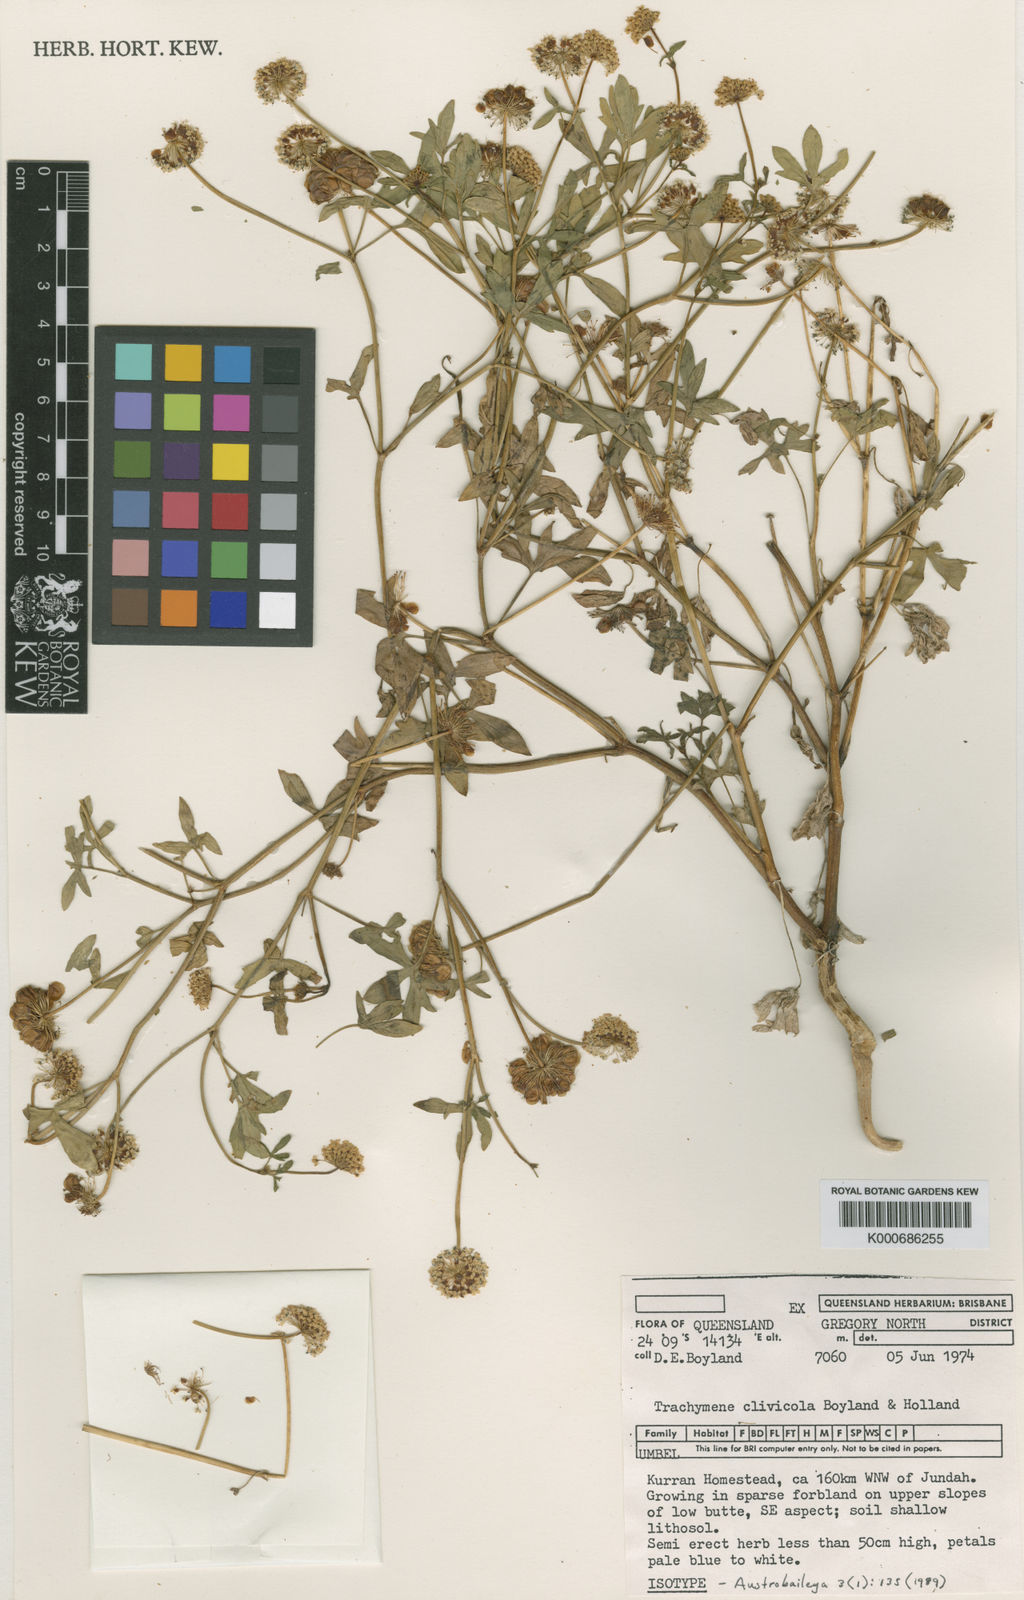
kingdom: Plantae
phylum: Tracheophyta
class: Magnoliopsida
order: Apiales
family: Araliaceae
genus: Trachymene
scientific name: Trachymene clivicola
